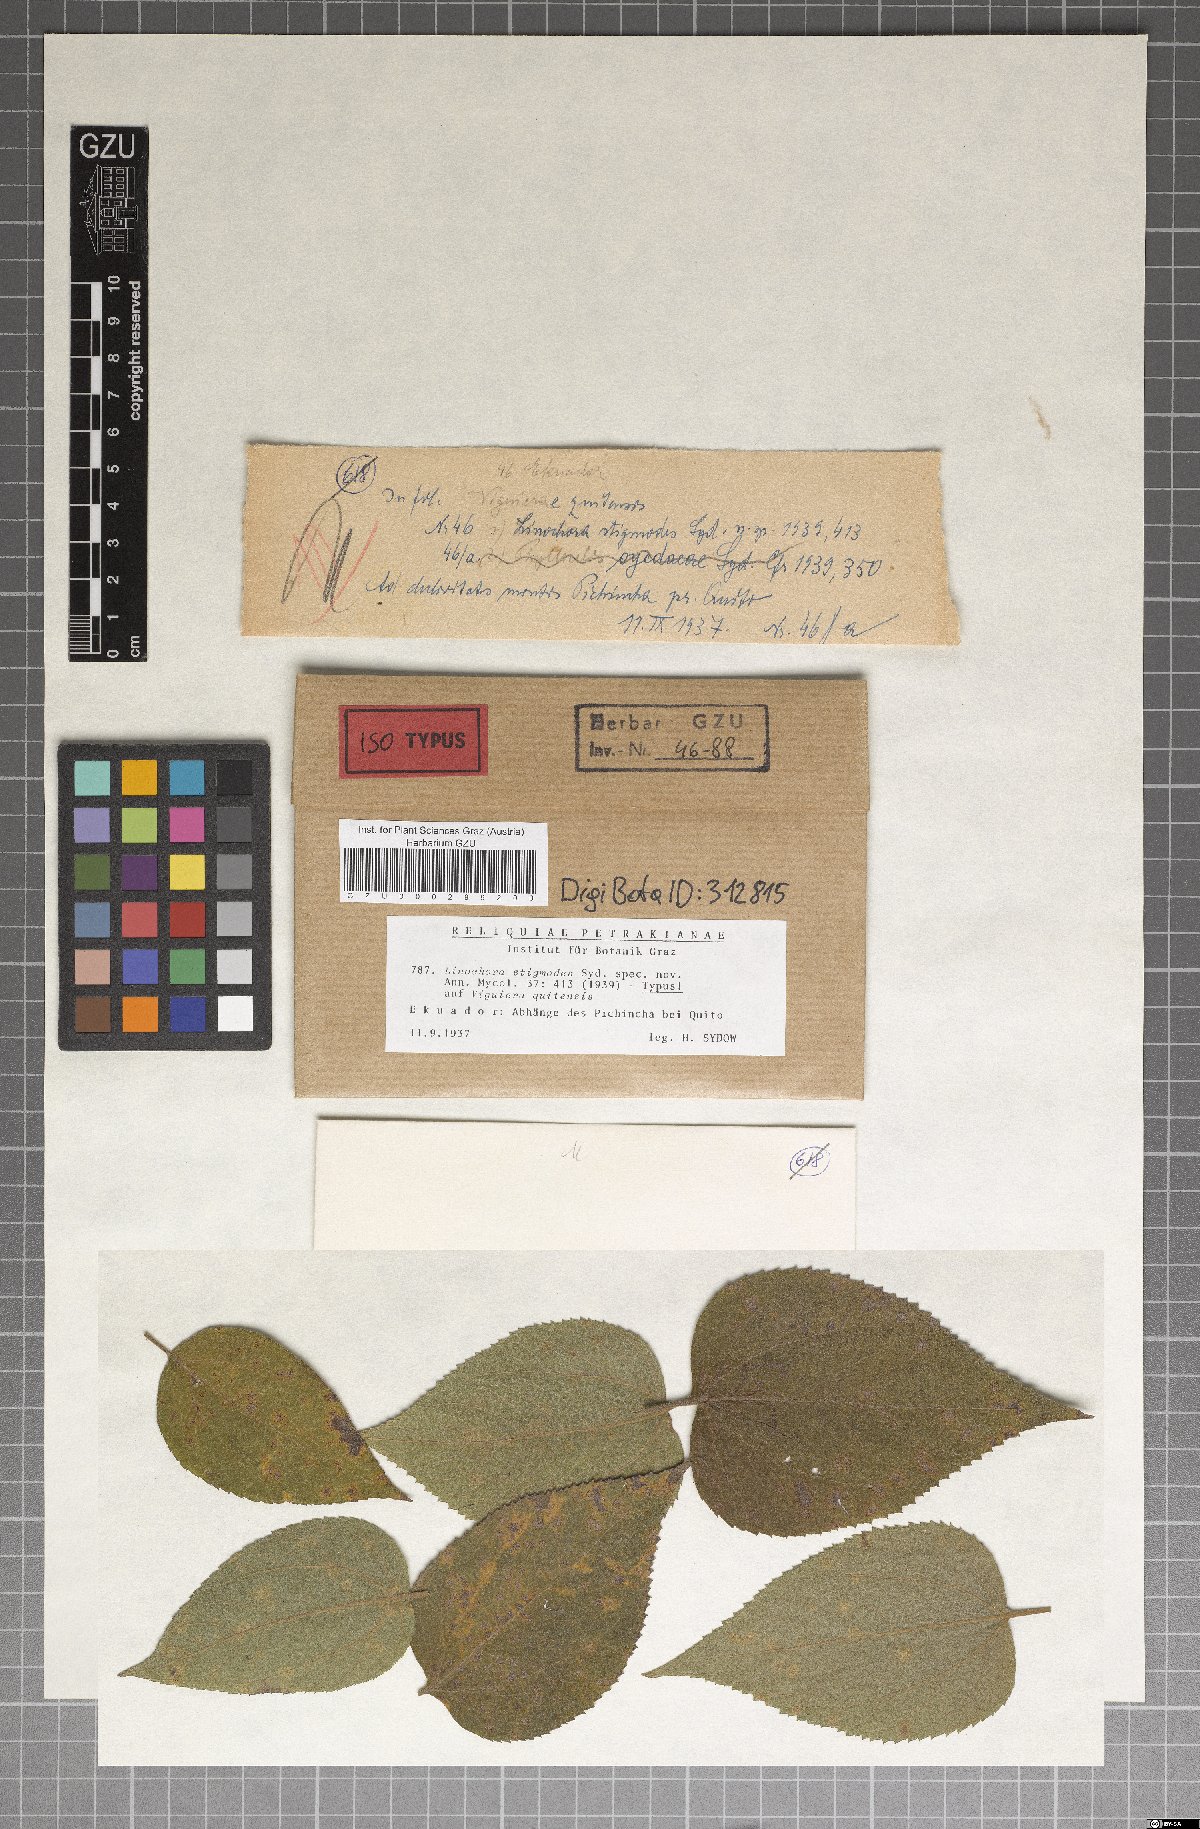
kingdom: Fungi
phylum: Ascomycota
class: Sordariomycetes
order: Phyllachorales
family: Phyllachoraceae
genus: Phyllachora
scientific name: Phyllachora stigmodes
